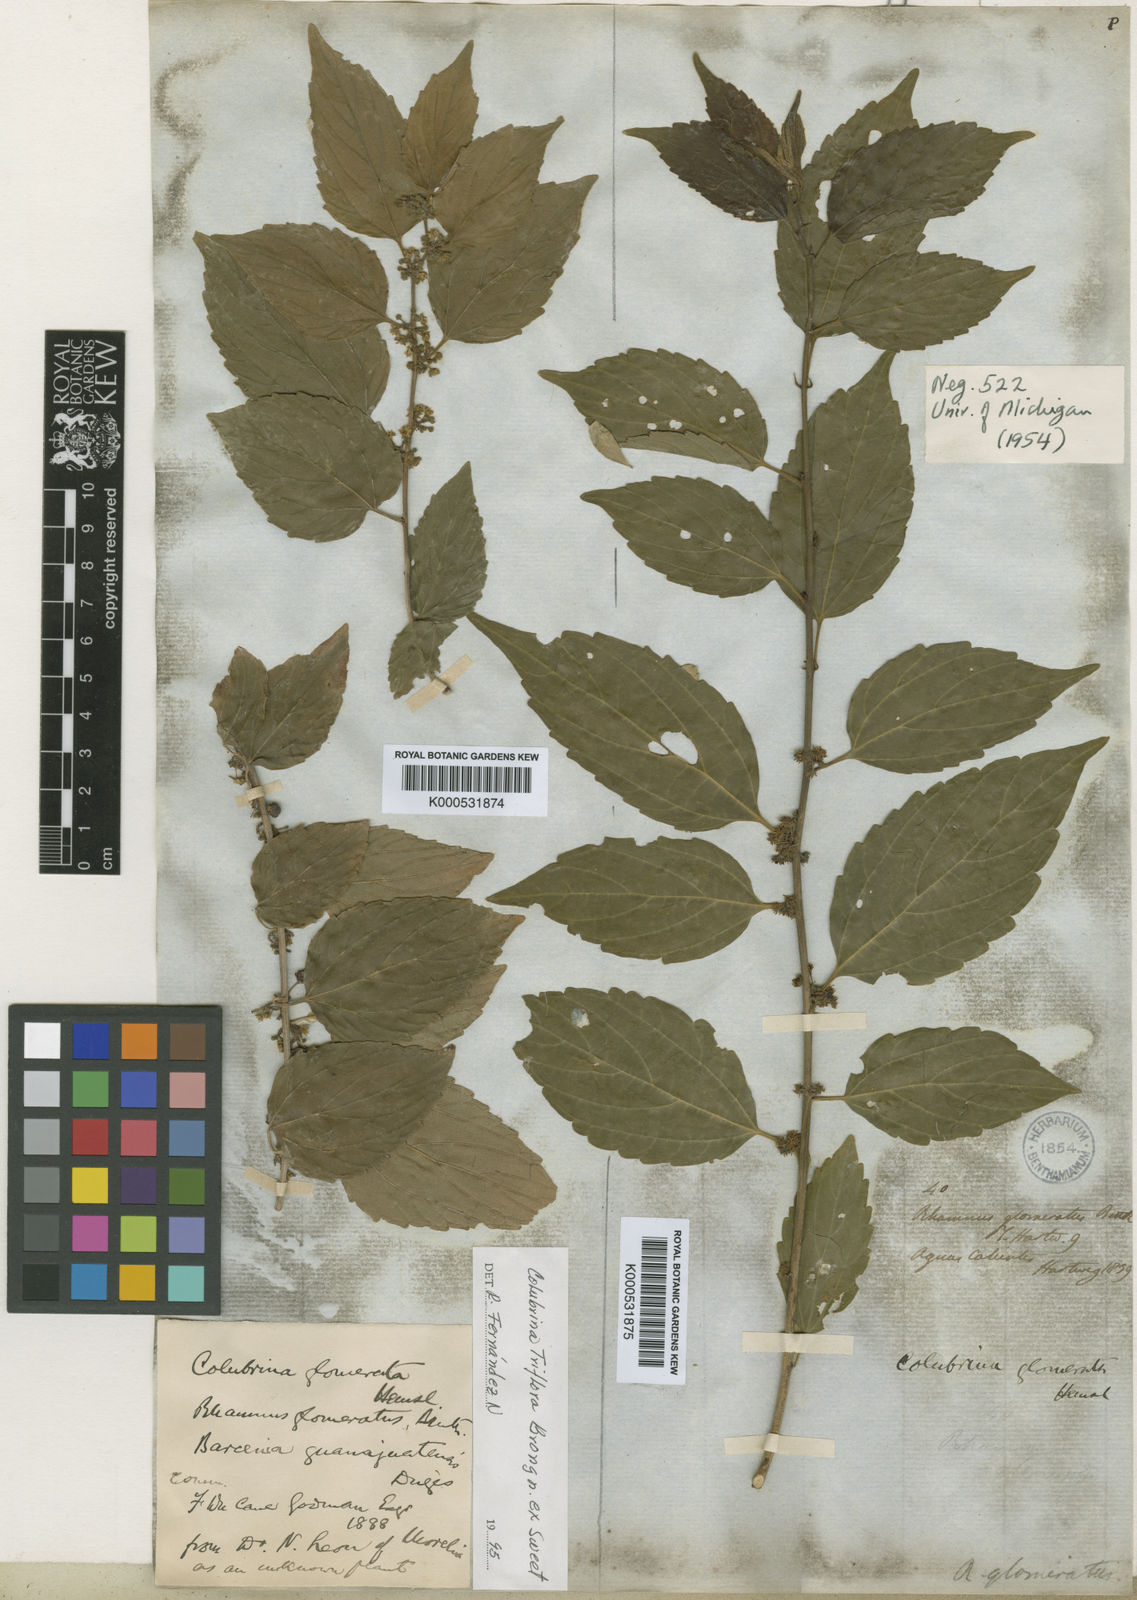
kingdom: Plantae
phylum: Tracheophyta
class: Magnoliopsida
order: Rosales
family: Rhamnaceae
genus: Colubrina
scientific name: Colubrina triflora
